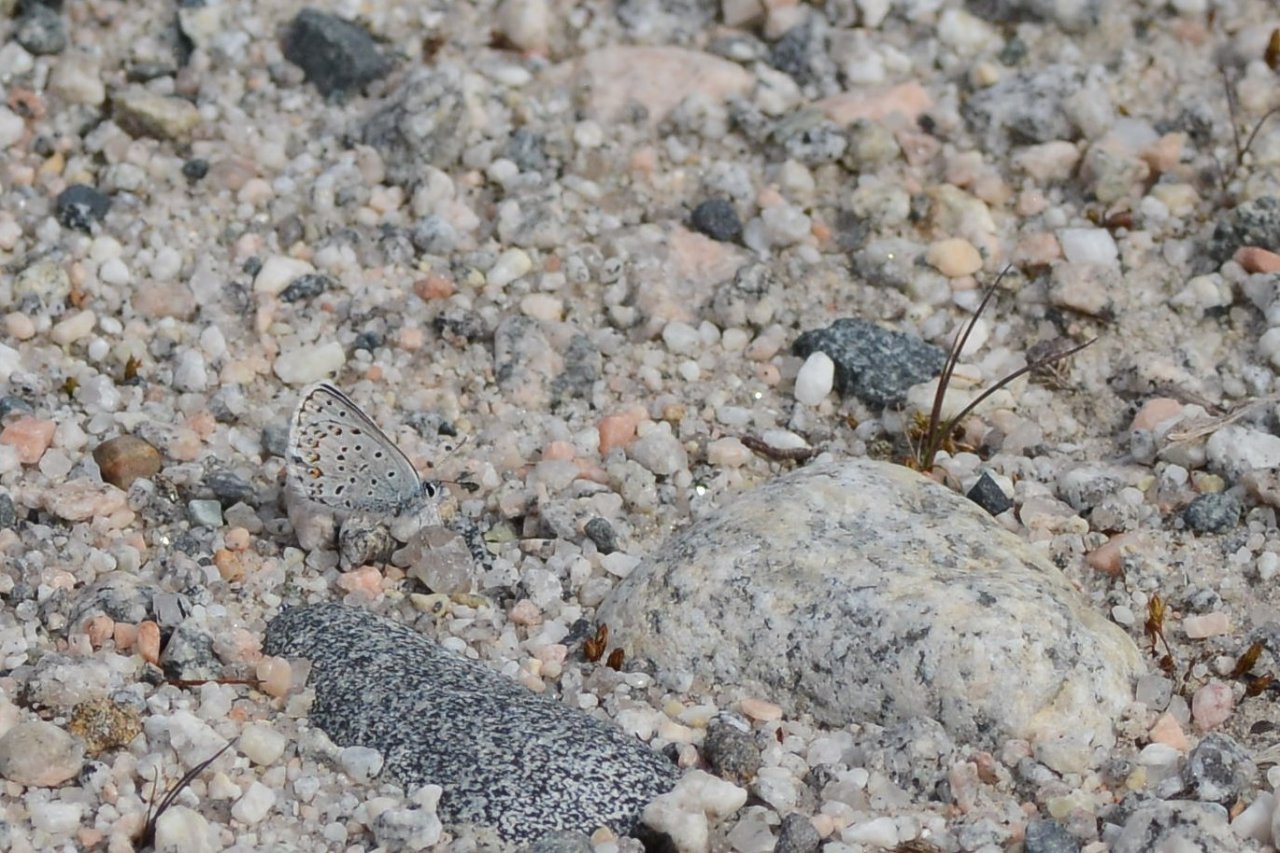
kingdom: Animalia
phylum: Arthropoda
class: Insecta
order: Lepidoptera
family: Lycaenidae
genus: Lycaeides
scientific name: Lycaeides idas
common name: Northern Blue
